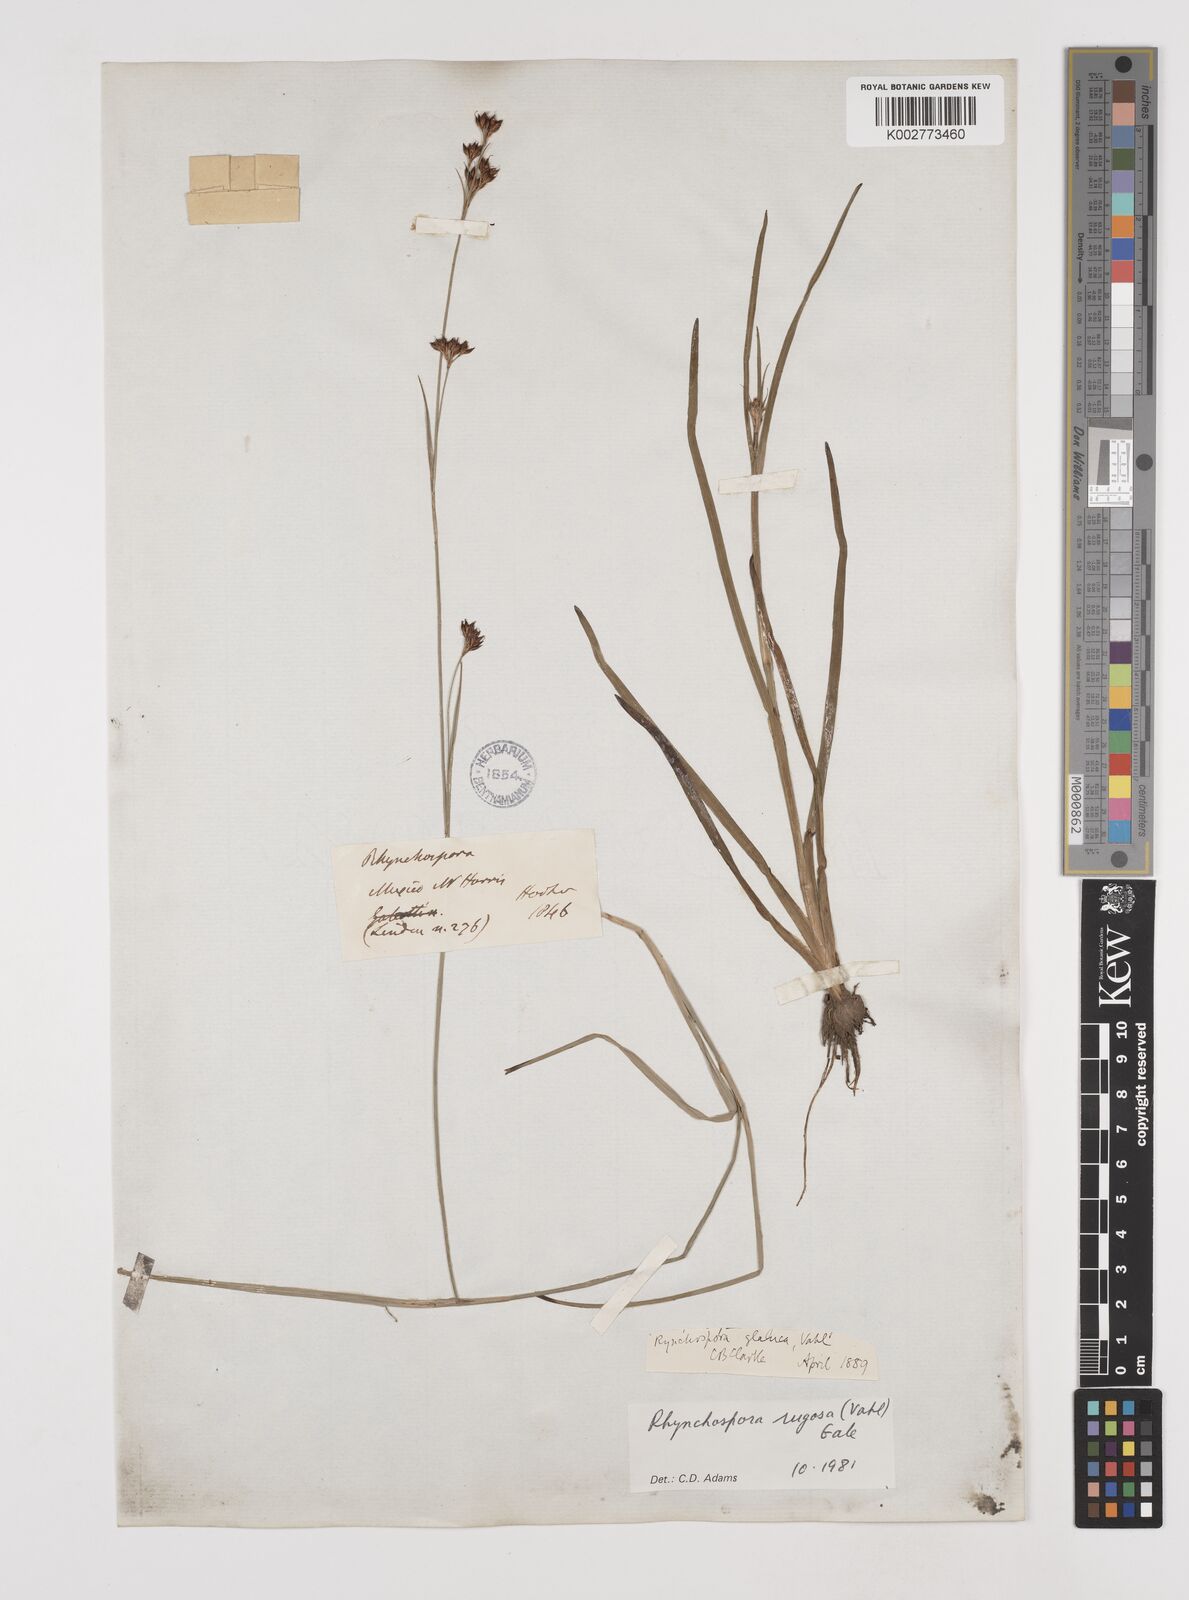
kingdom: Plantae
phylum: Tracheophyta
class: Liliopsida
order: Poales
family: Cyperaceae
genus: Rhynchospora
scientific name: Rhynchospora rugosa
